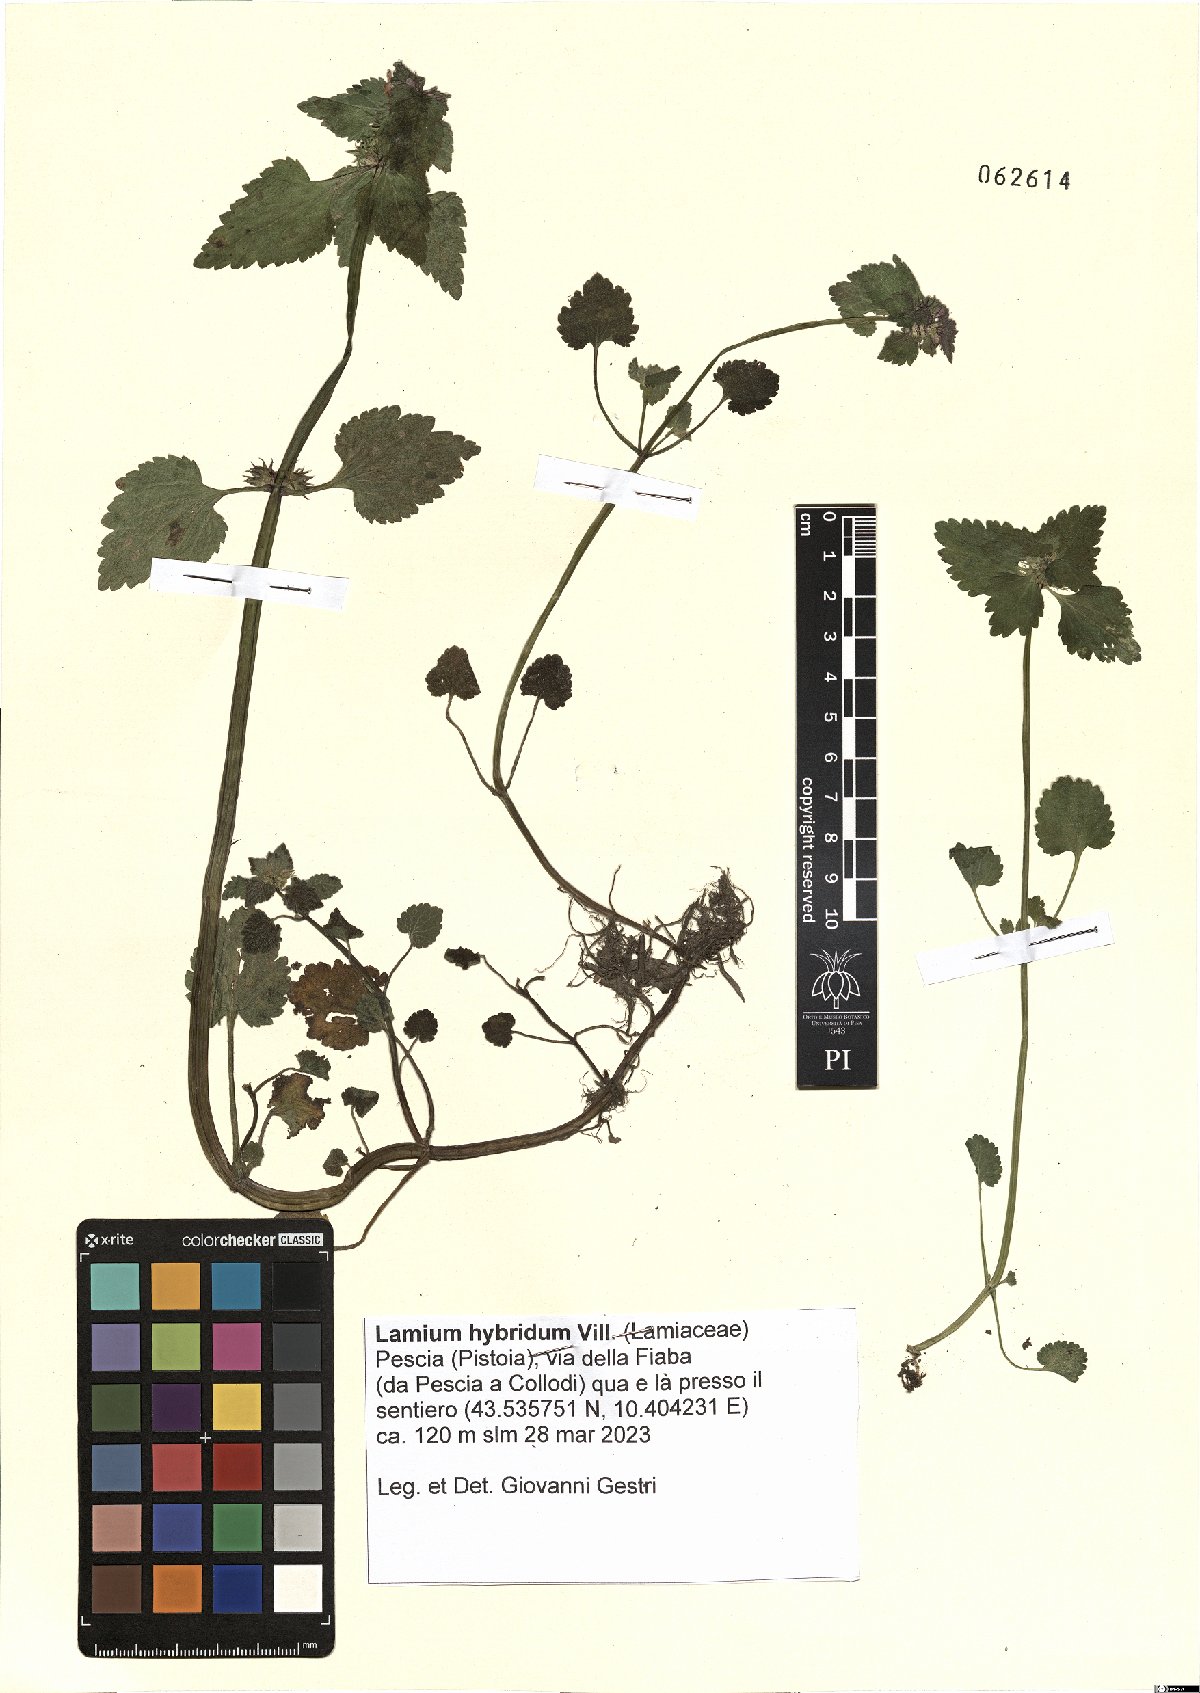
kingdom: Plantae
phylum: Tracheophyta
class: Magnoliopsida
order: Lamiales
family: Lamiaceae
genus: Lamium
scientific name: Lamium hybridum
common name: Cut-leaved dead-nettle
